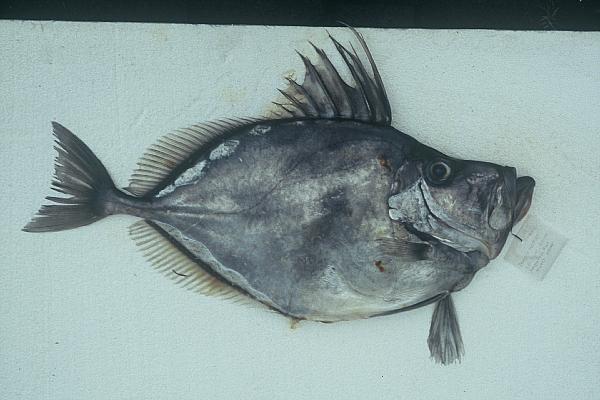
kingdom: Animalia
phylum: Chordata
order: Zeiformes
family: Zeidae
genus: Zenopsis
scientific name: Zenopsis conchifer
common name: Silvery john dory
